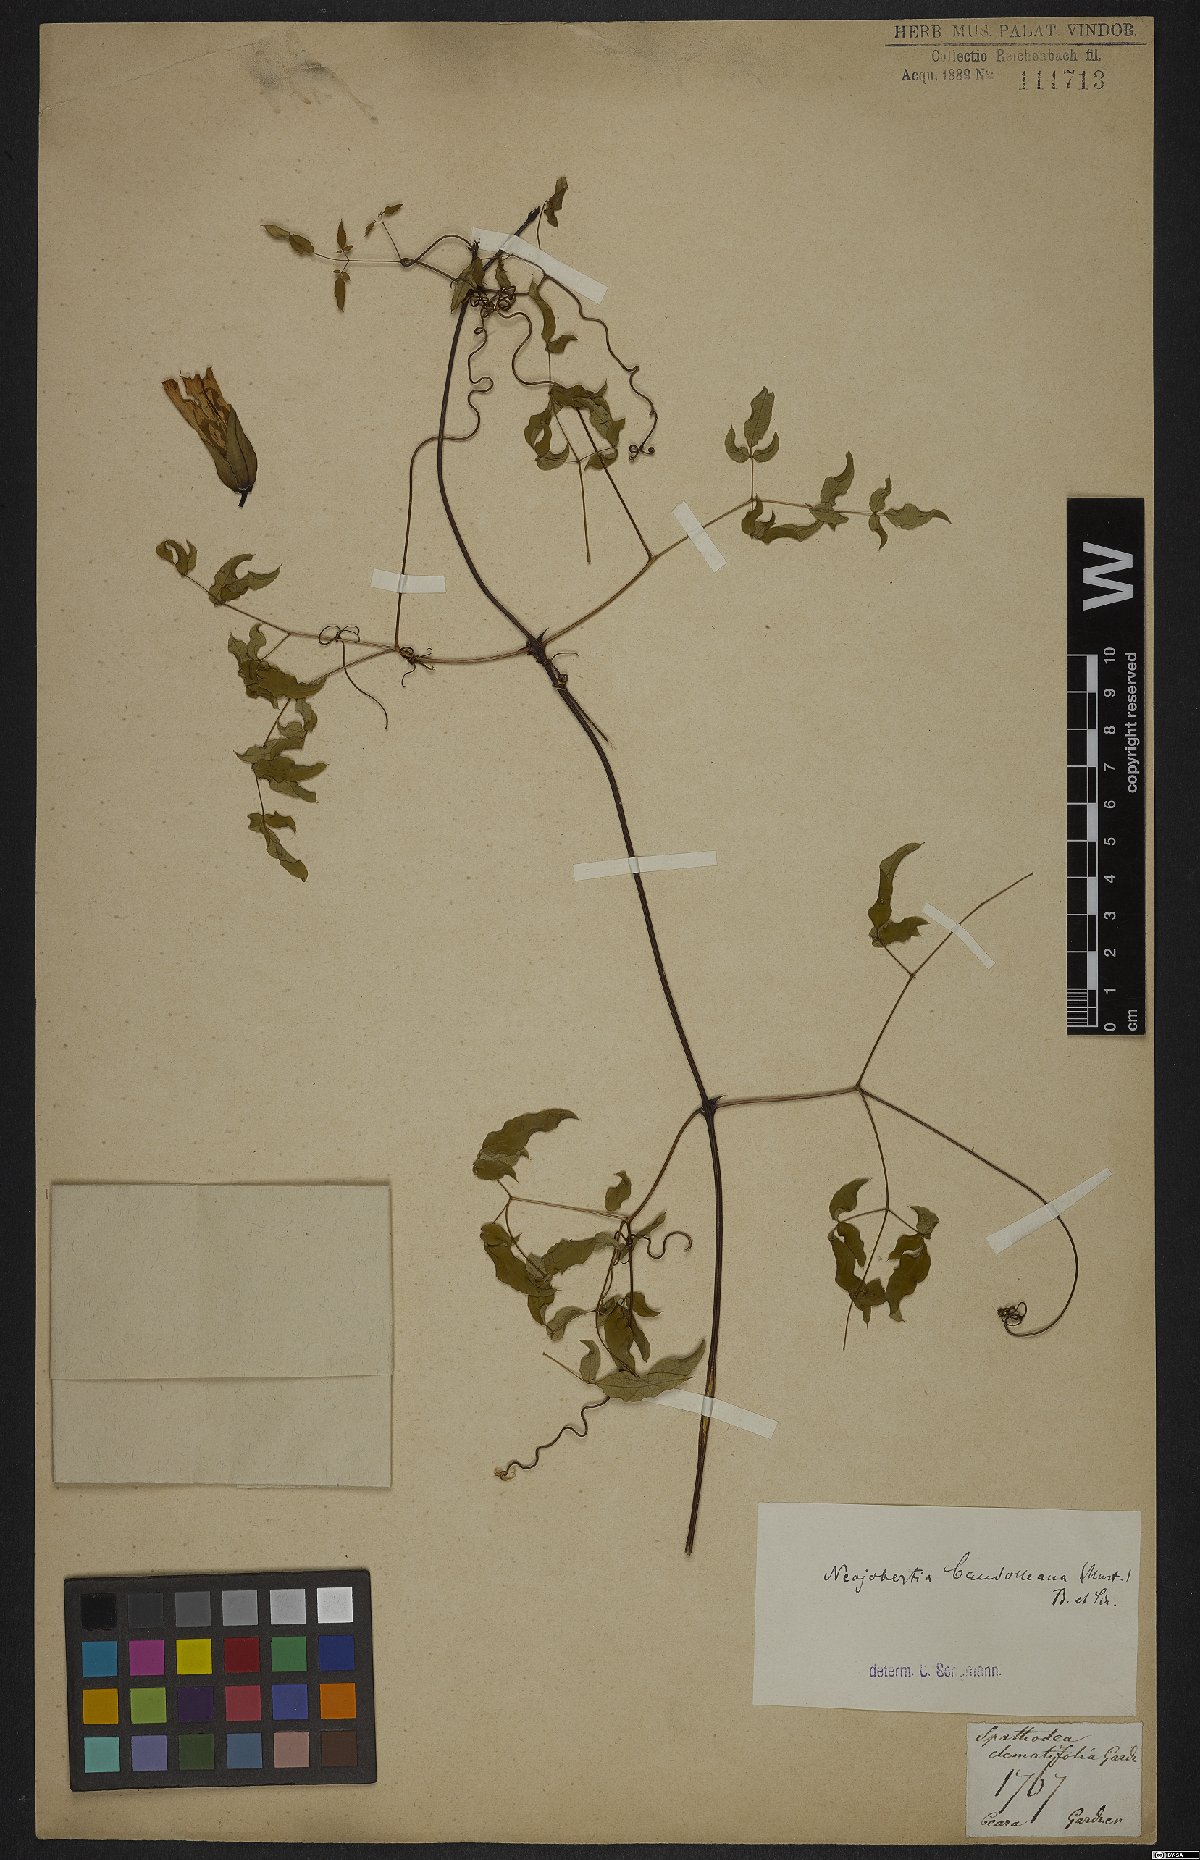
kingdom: Plantae
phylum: Tracheophyta
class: Magnoliopsida
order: Lamiales
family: Bignoniaceae
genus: Adenocalymma
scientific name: Adenocalymma candolleanum
